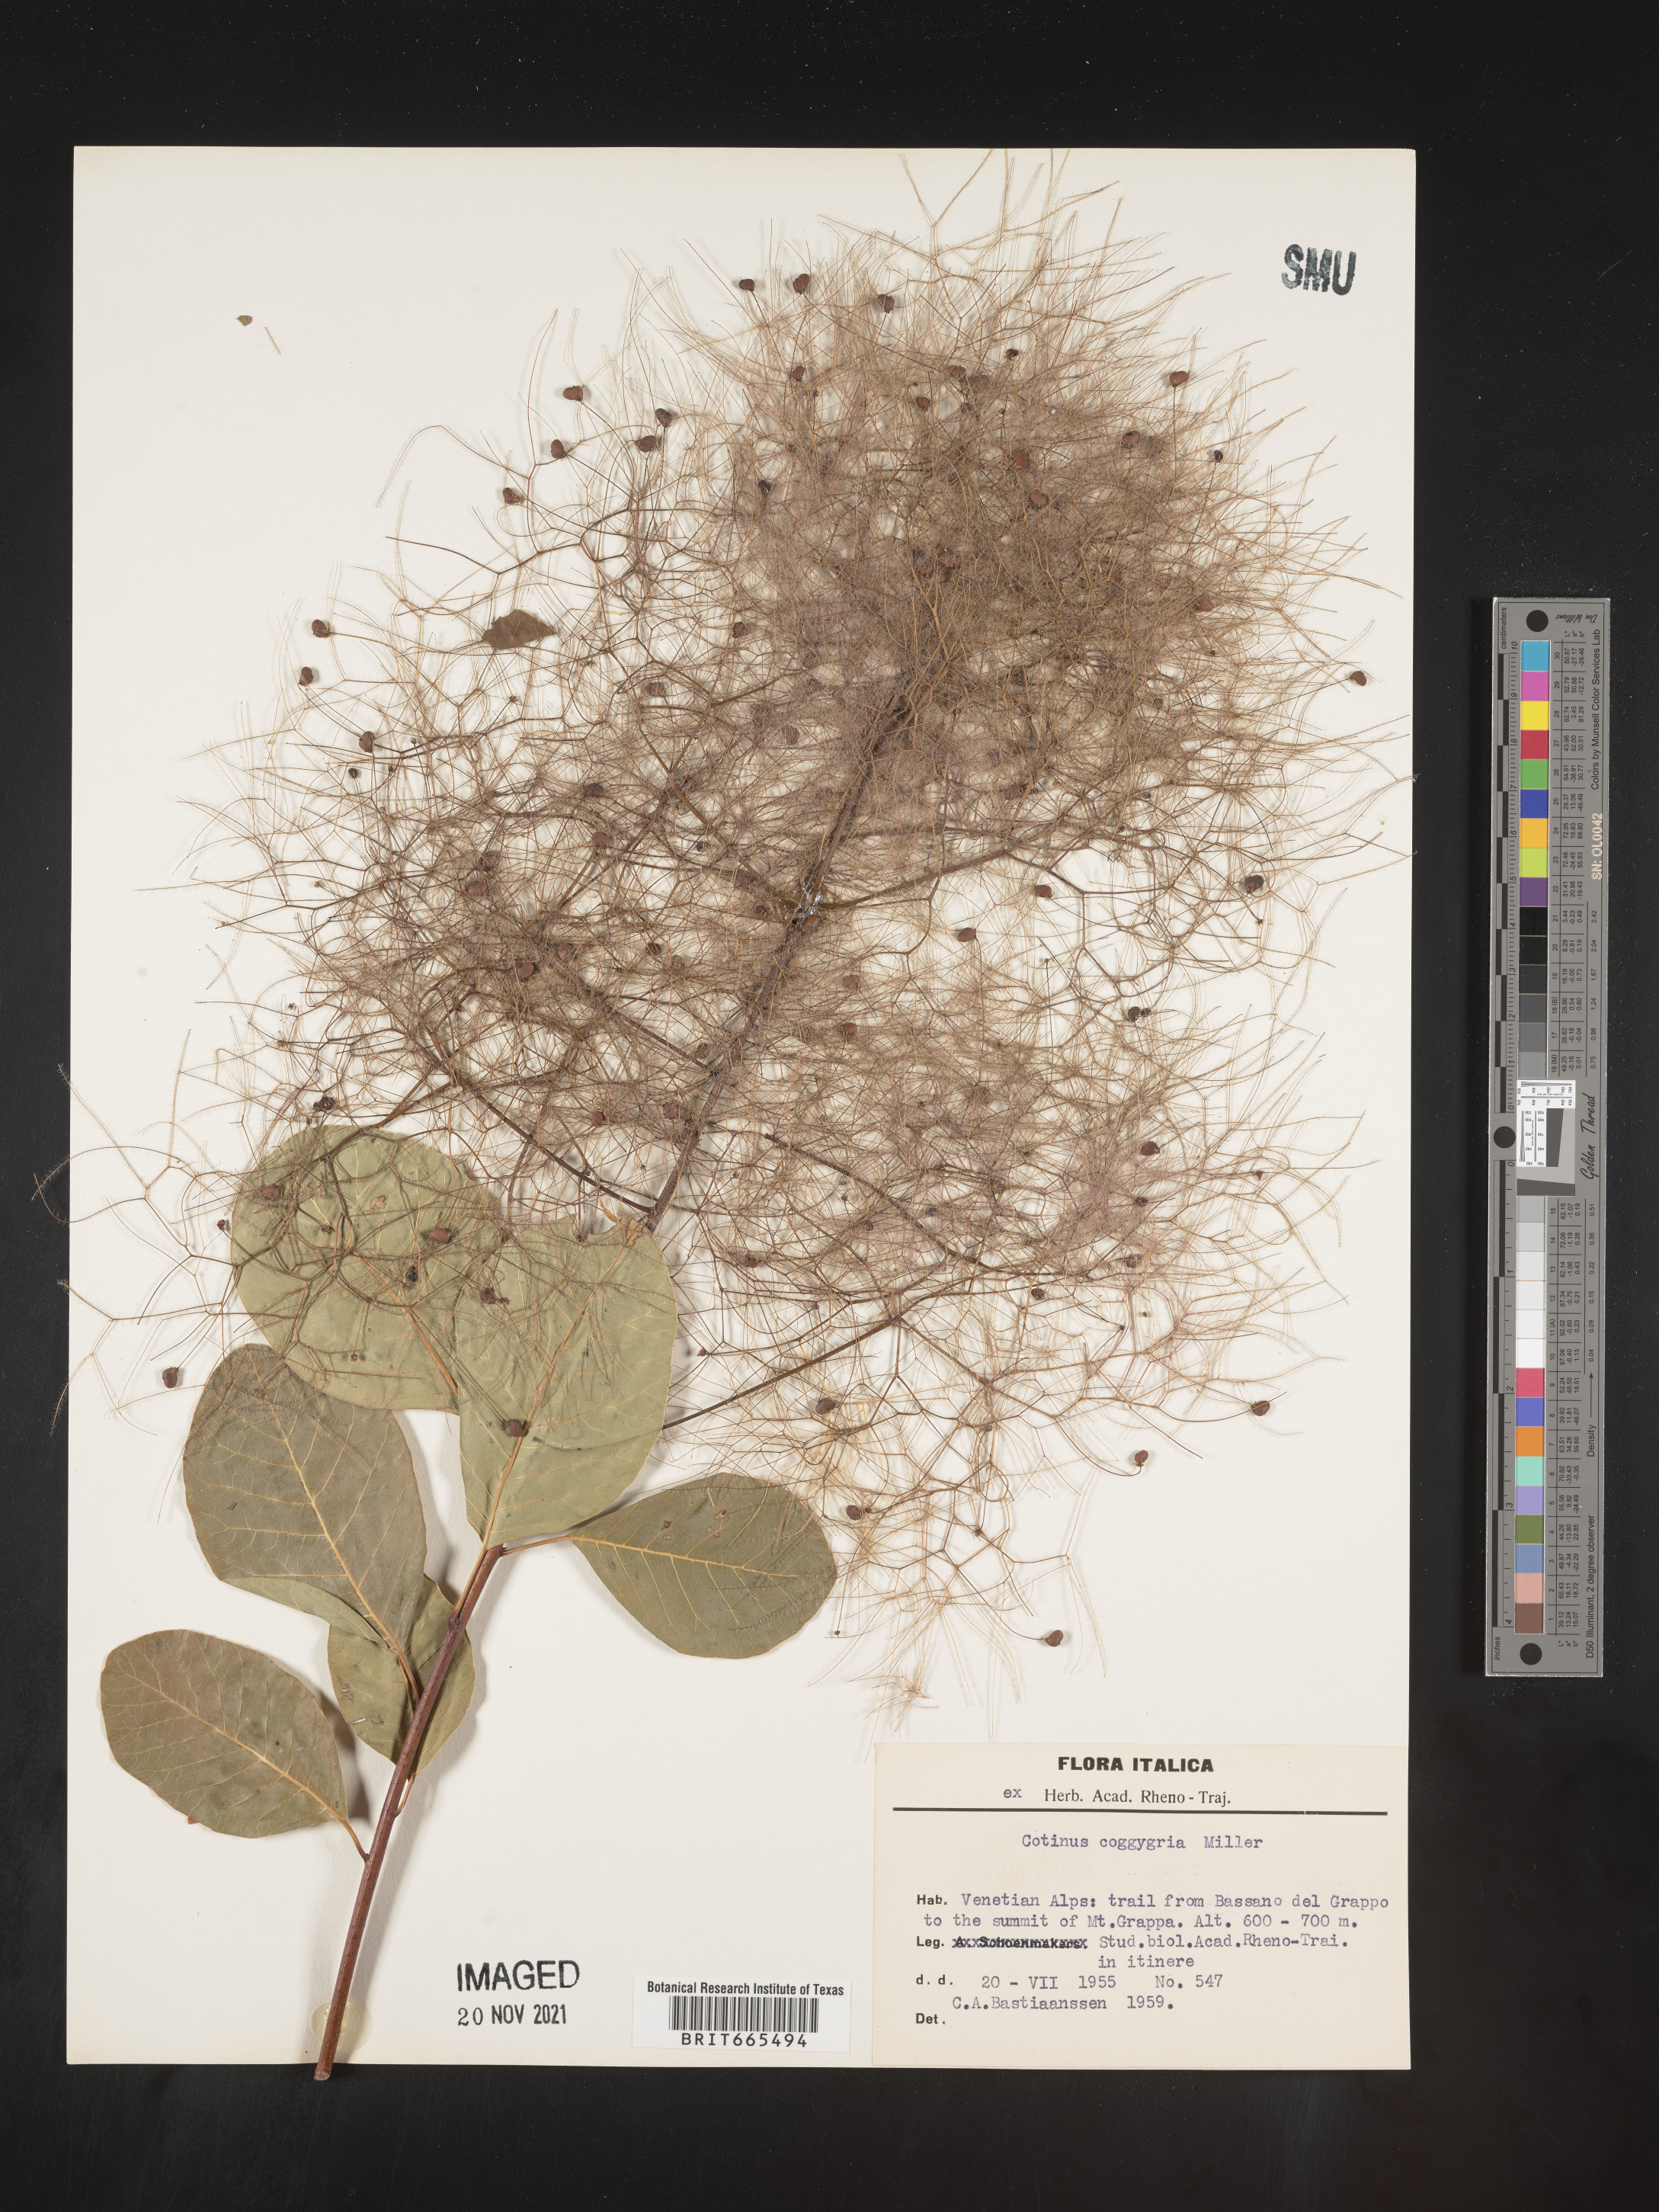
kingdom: Plantae
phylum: Tracheophyta
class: Magnoliopsida
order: Sapindales
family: Anacardiaceae
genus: Cotinus
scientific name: Cotinus
